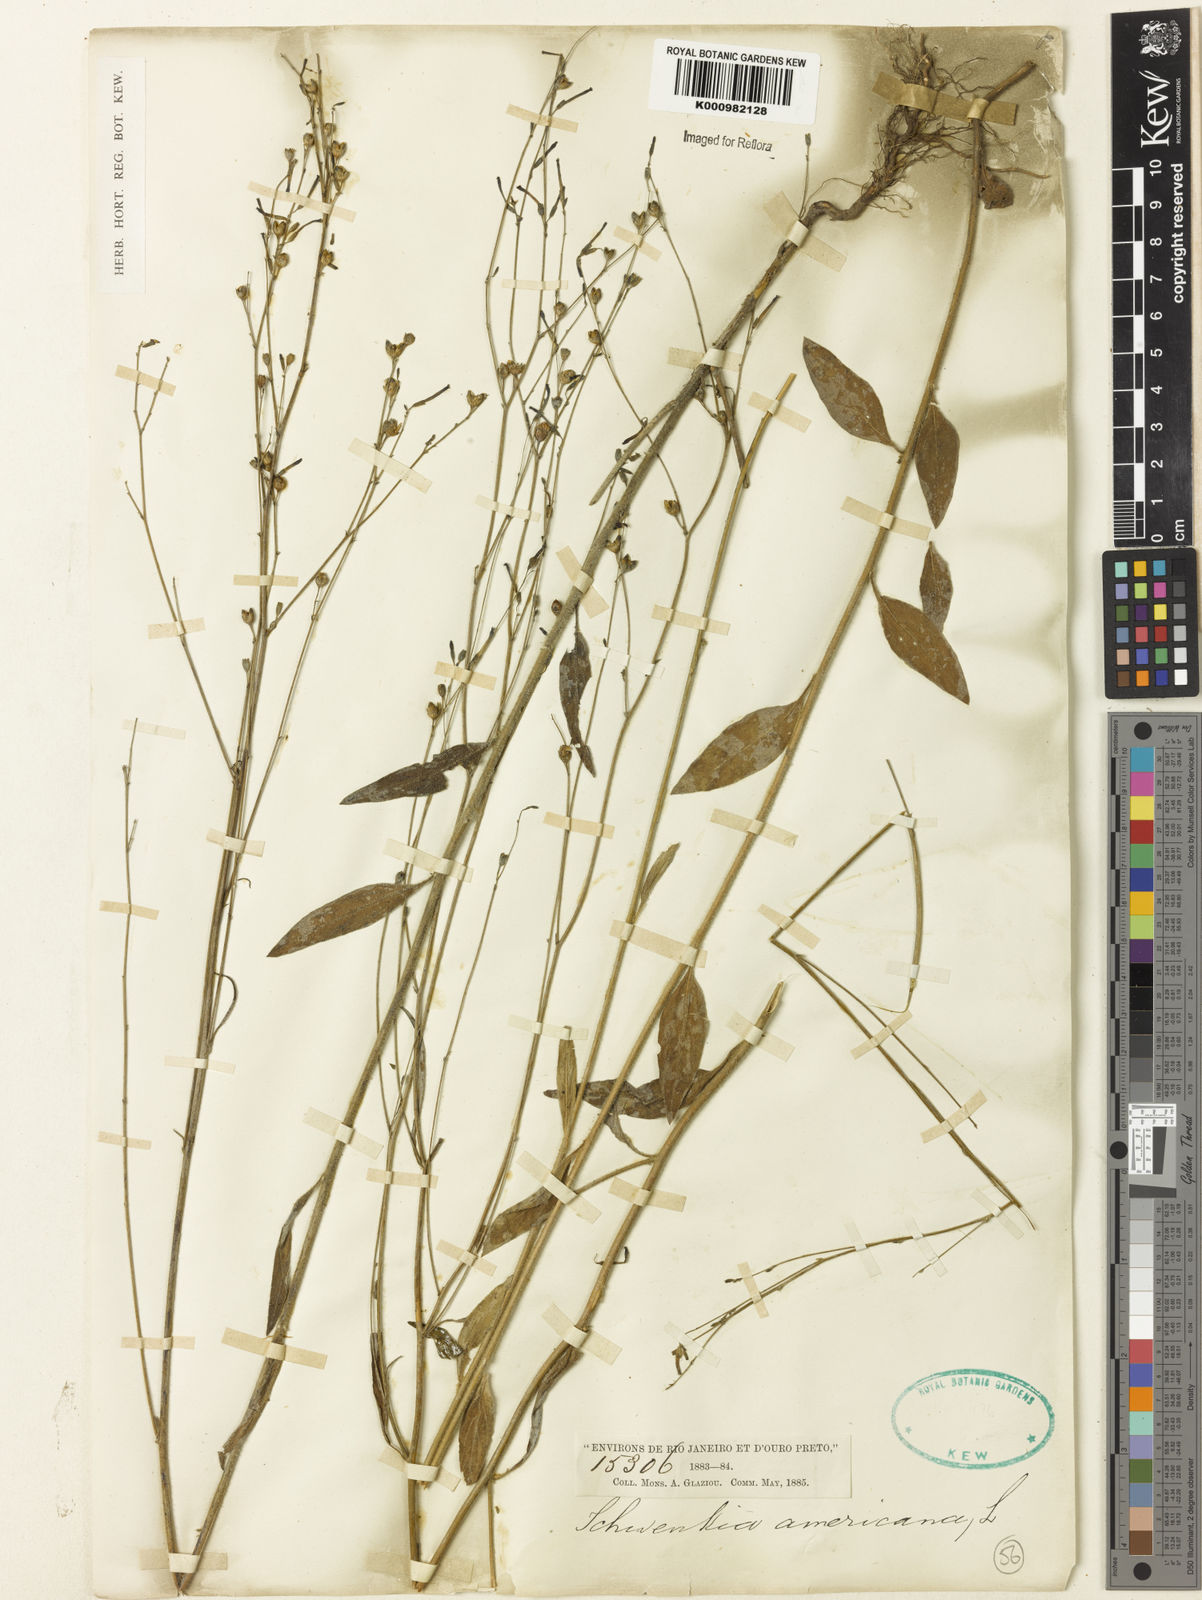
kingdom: Plantae
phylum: Tracheophyta
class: Magnoliopsida
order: Solanales
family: Solanaceae
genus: Schwenckia
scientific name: Schwenckia americana
